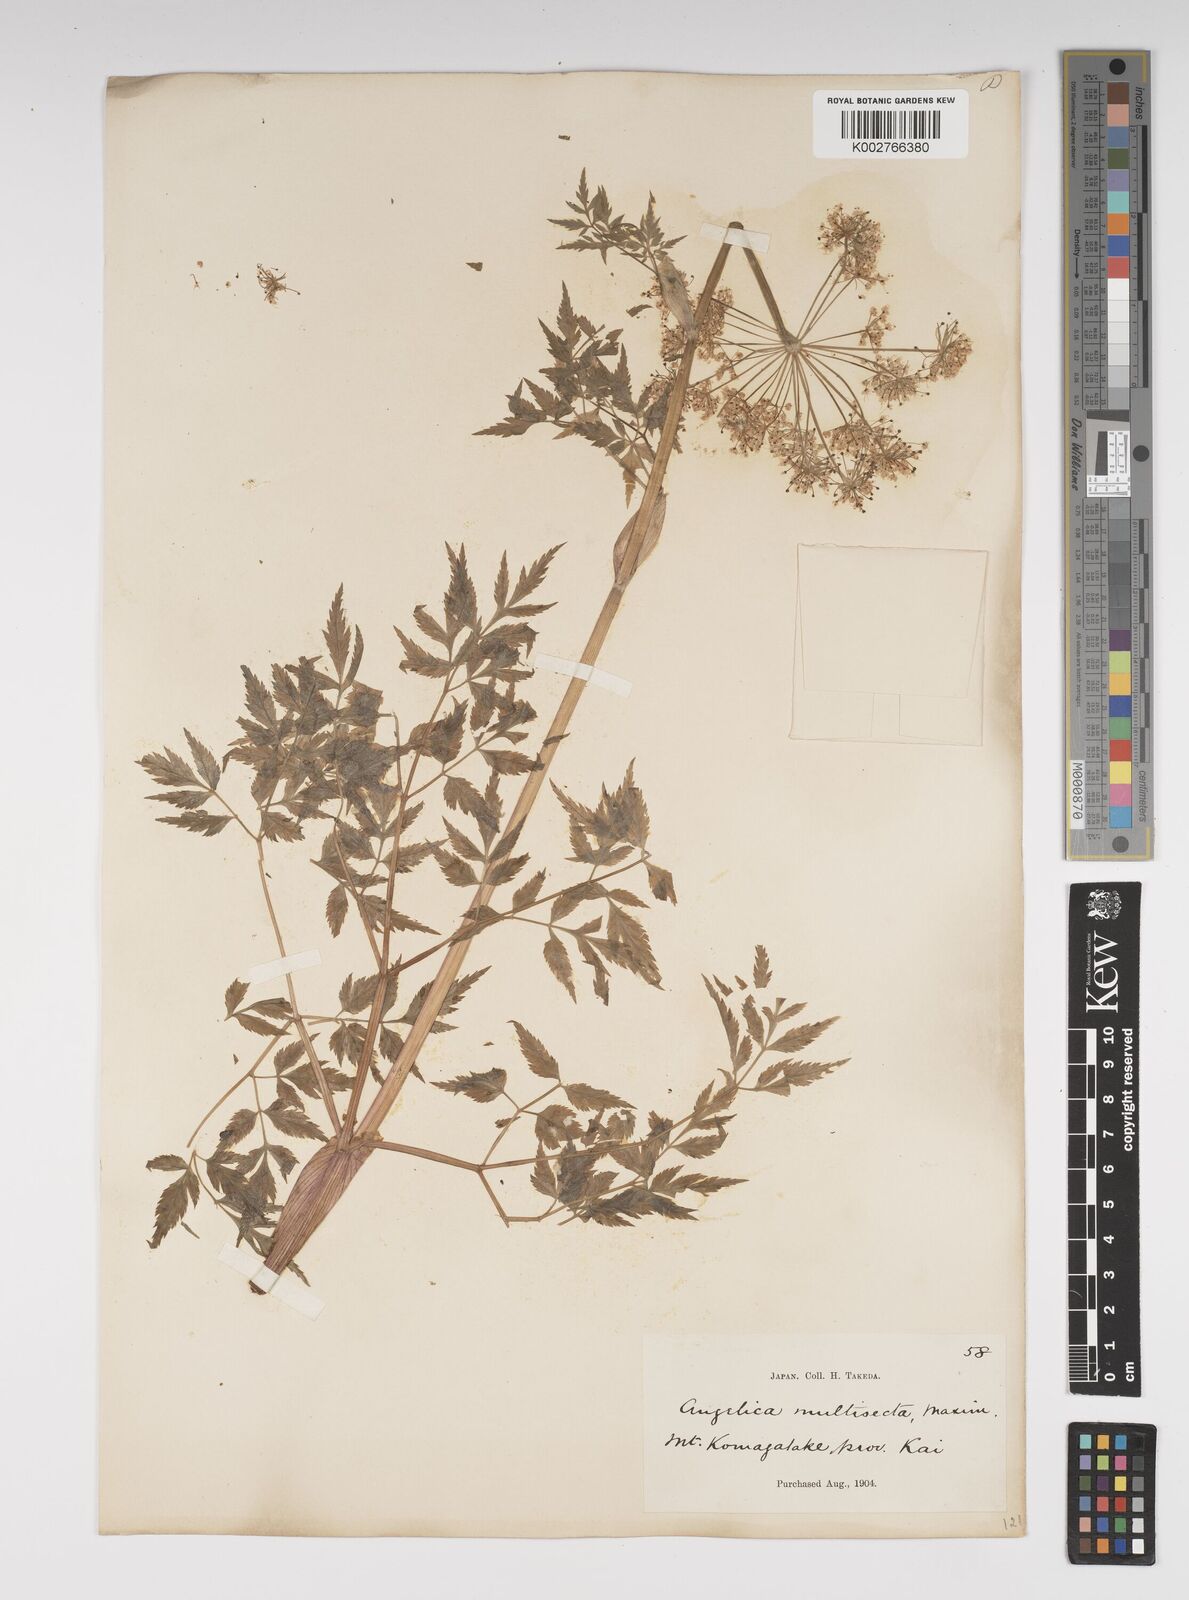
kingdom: Plantae
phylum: Tracheophyta
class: Magnoliopsida
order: Apiales
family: Apiaceae
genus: Angelica
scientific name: Angelica multisecta
